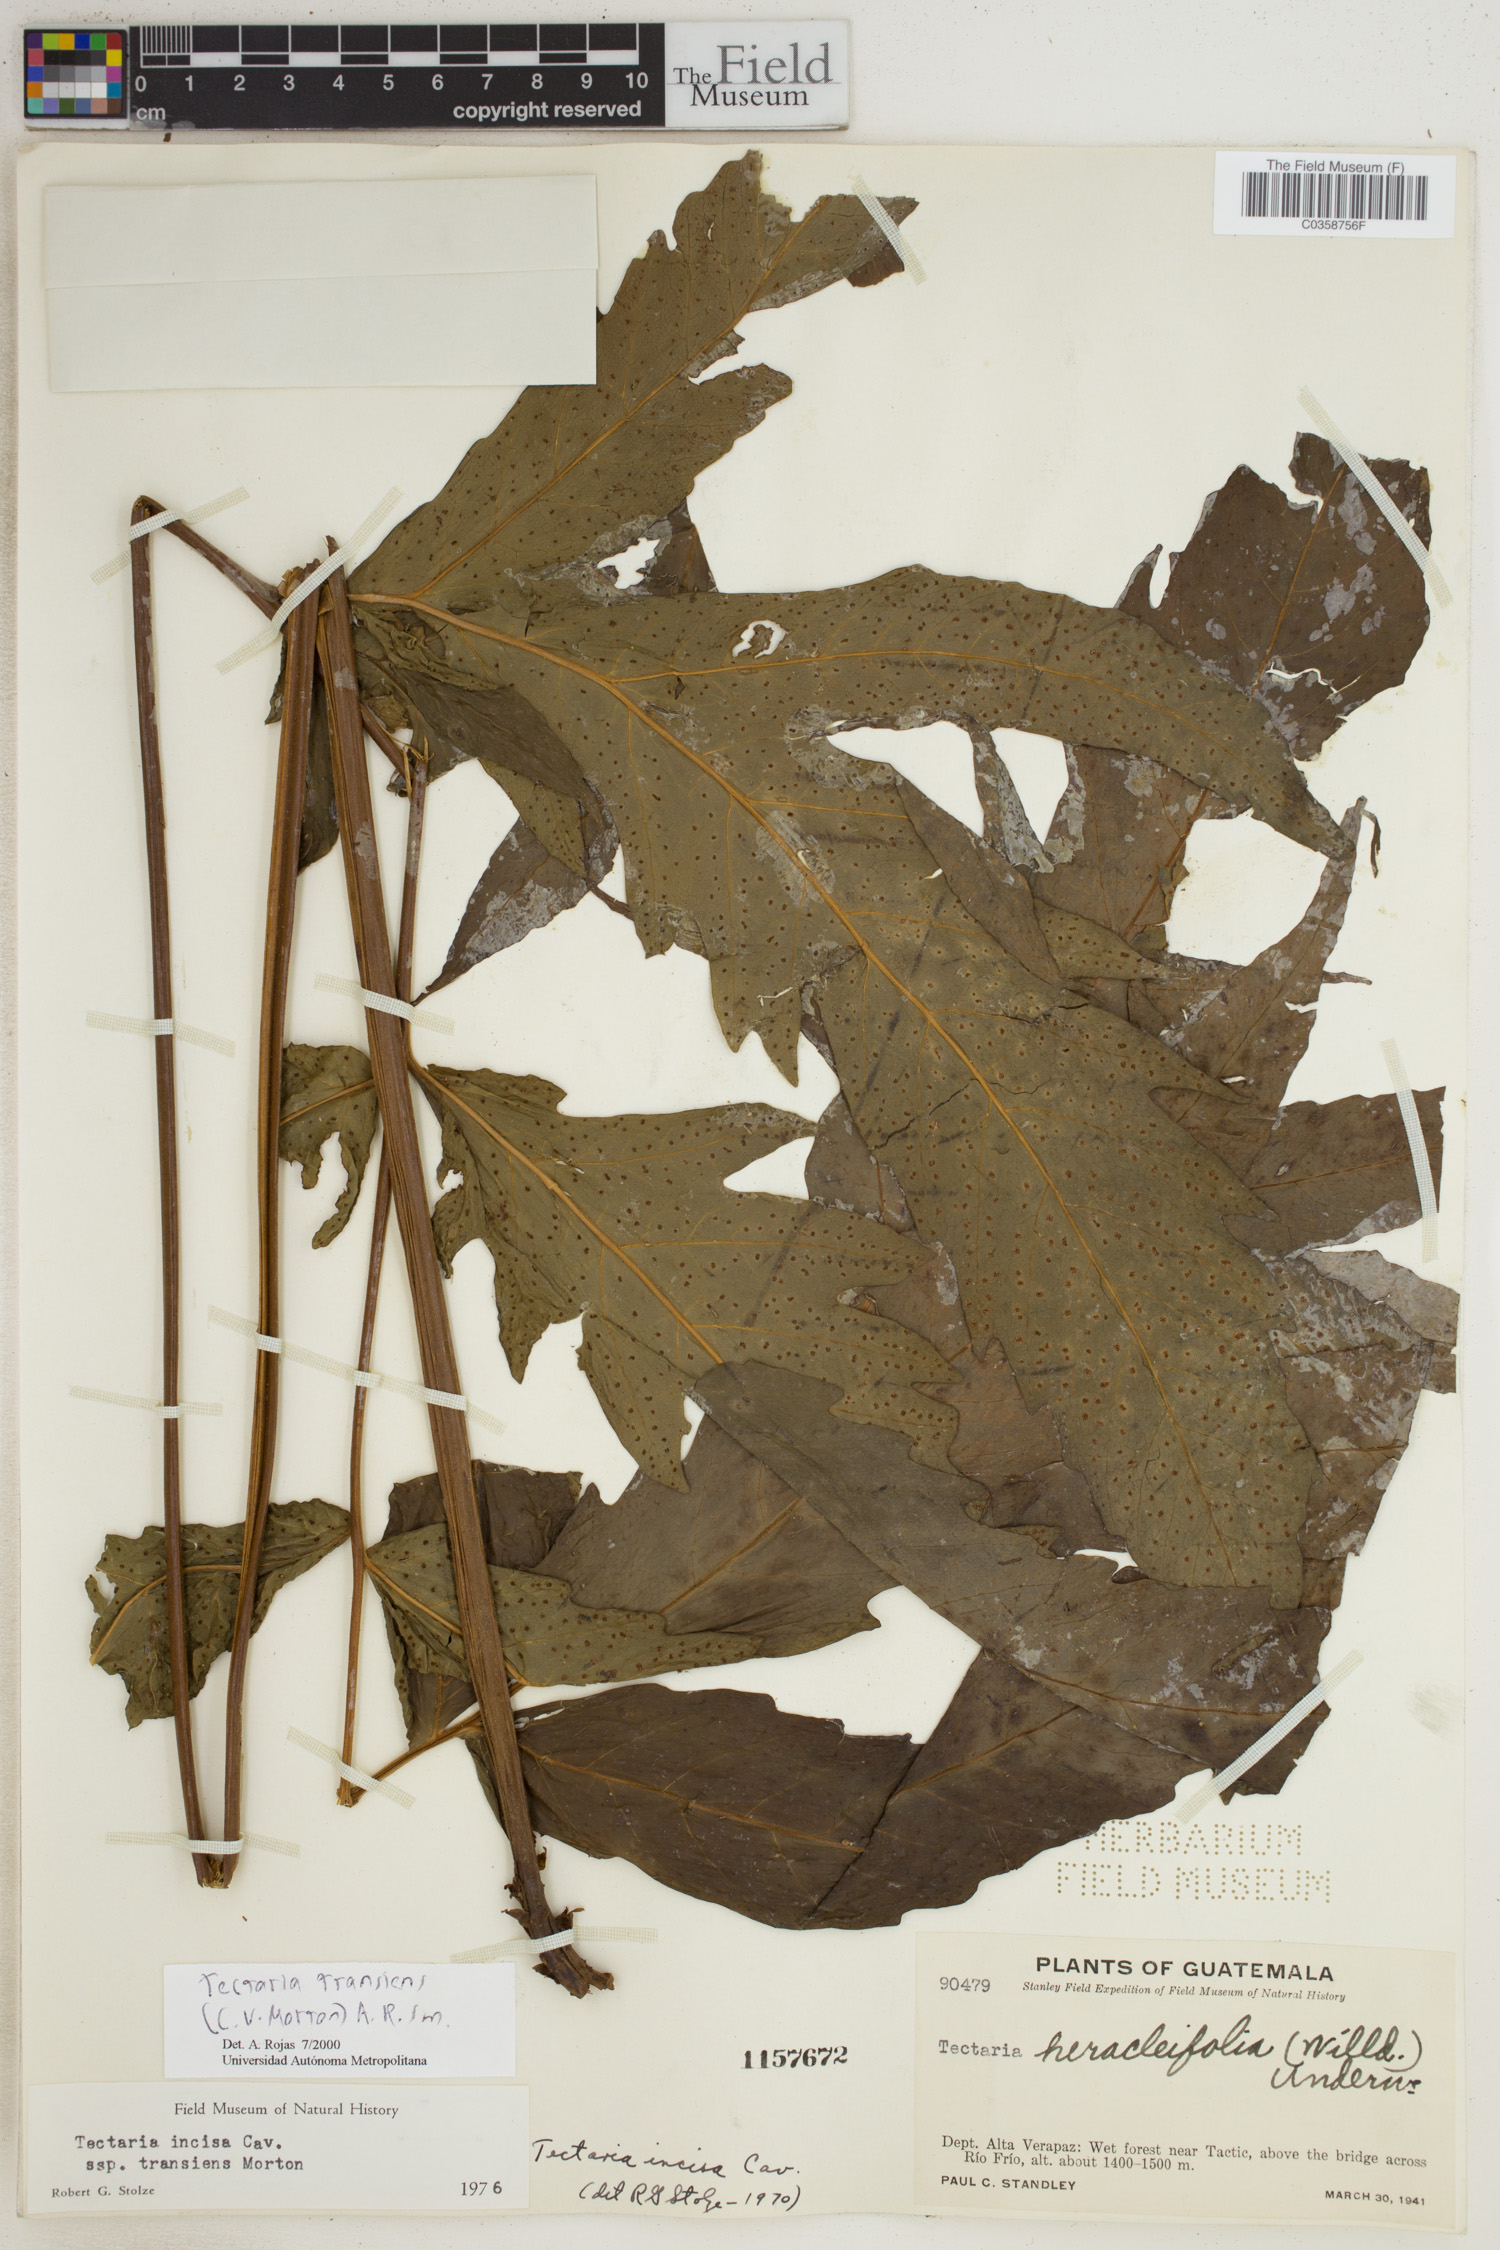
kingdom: Plantae
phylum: Tracheophyta
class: Polypodiopsida
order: Polypodiales
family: Tectariaceae
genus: Tectaria
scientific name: Tectaria transiens
